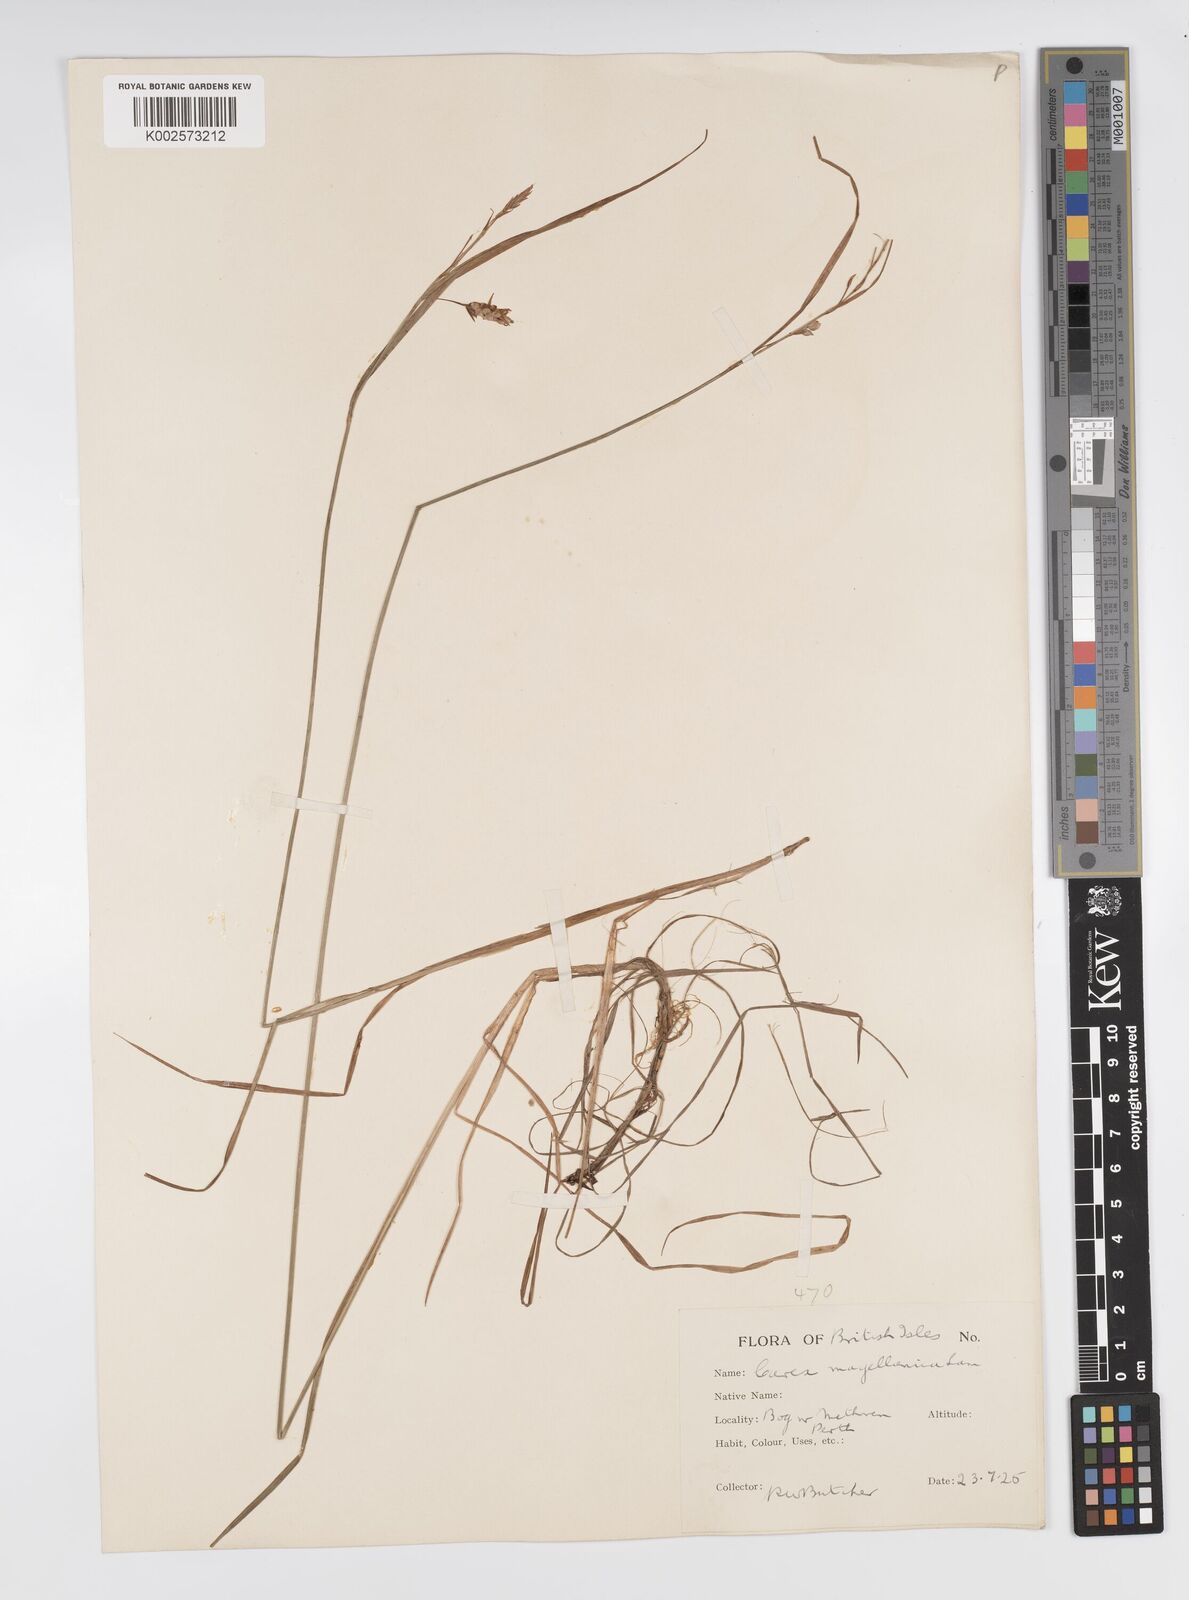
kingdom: Plantae
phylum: Tracheophyta
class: Liliopsida
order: Poales
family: Cyperaceae
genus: Carex
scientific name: Carex magellanica
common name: Bog sedge
